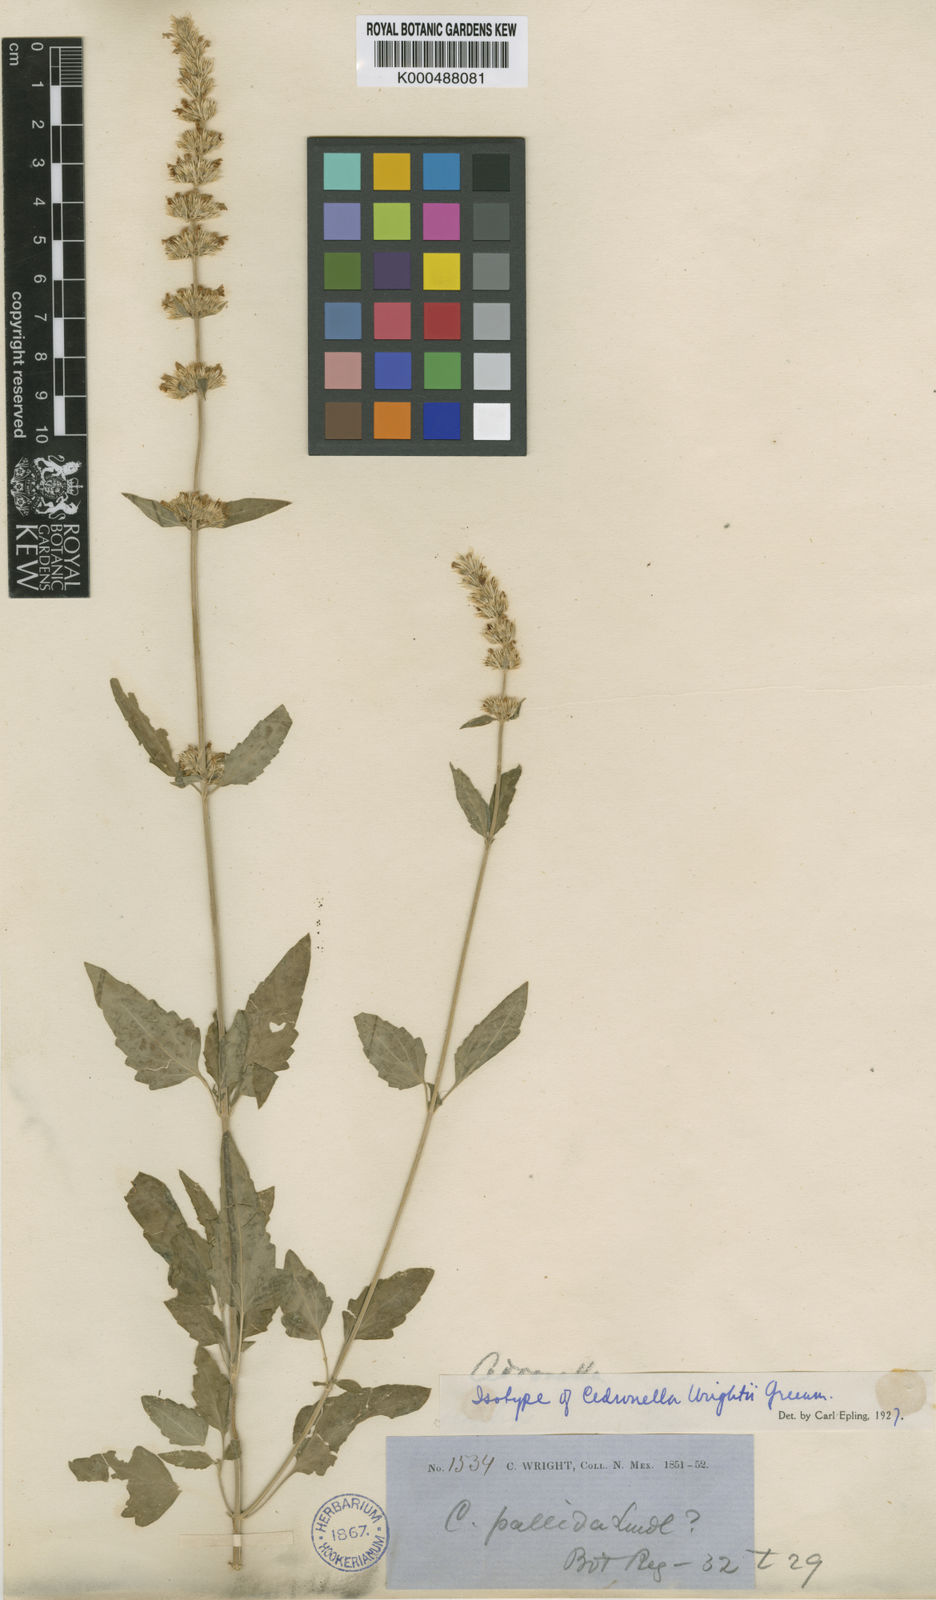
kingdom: Plantae
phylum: Tracheophyta
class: Magnoliopsida
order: Lamiales
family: Lamiaceae
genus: Agastache
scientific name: Agastache wrightii
